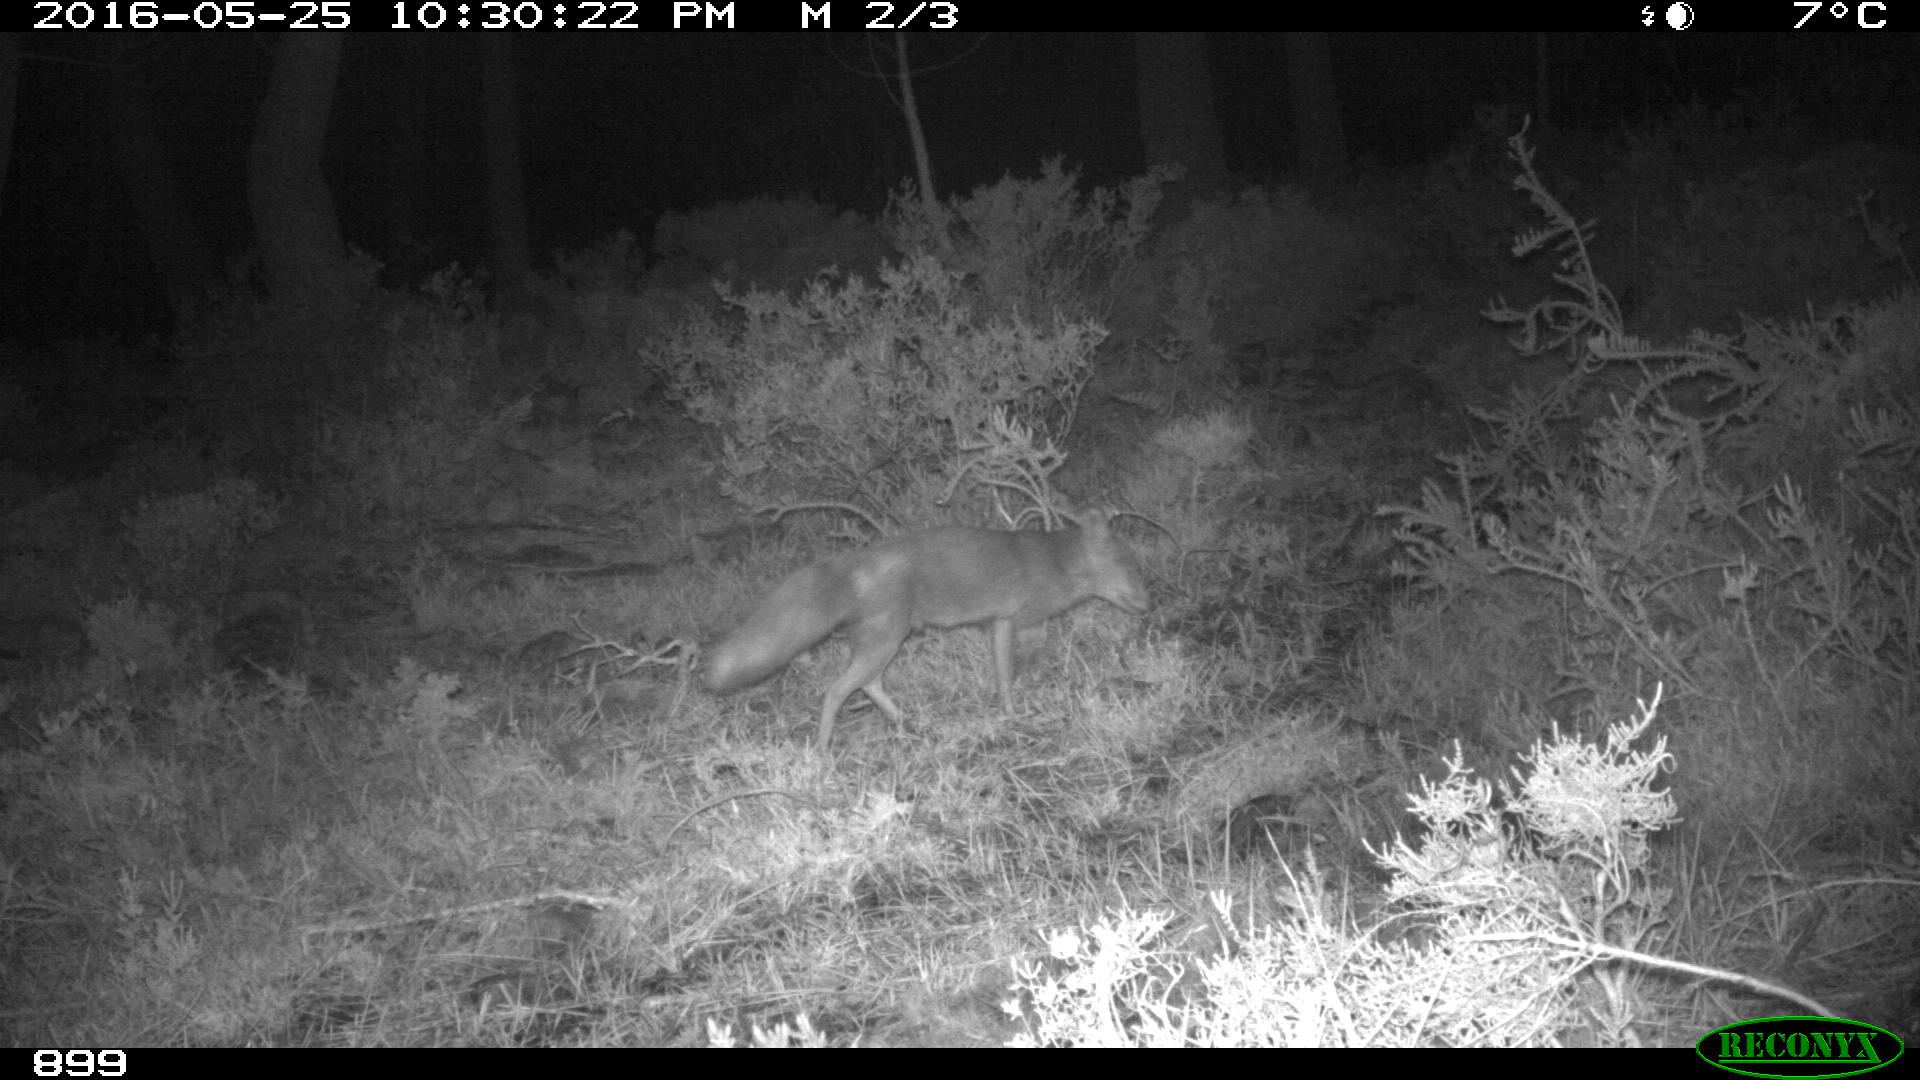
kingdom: Animalia
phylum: Chordata
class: Mammalia
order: Carnivora
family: Canidae
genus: Vulpes
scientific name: Vulpes vulpes
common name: Red fox
